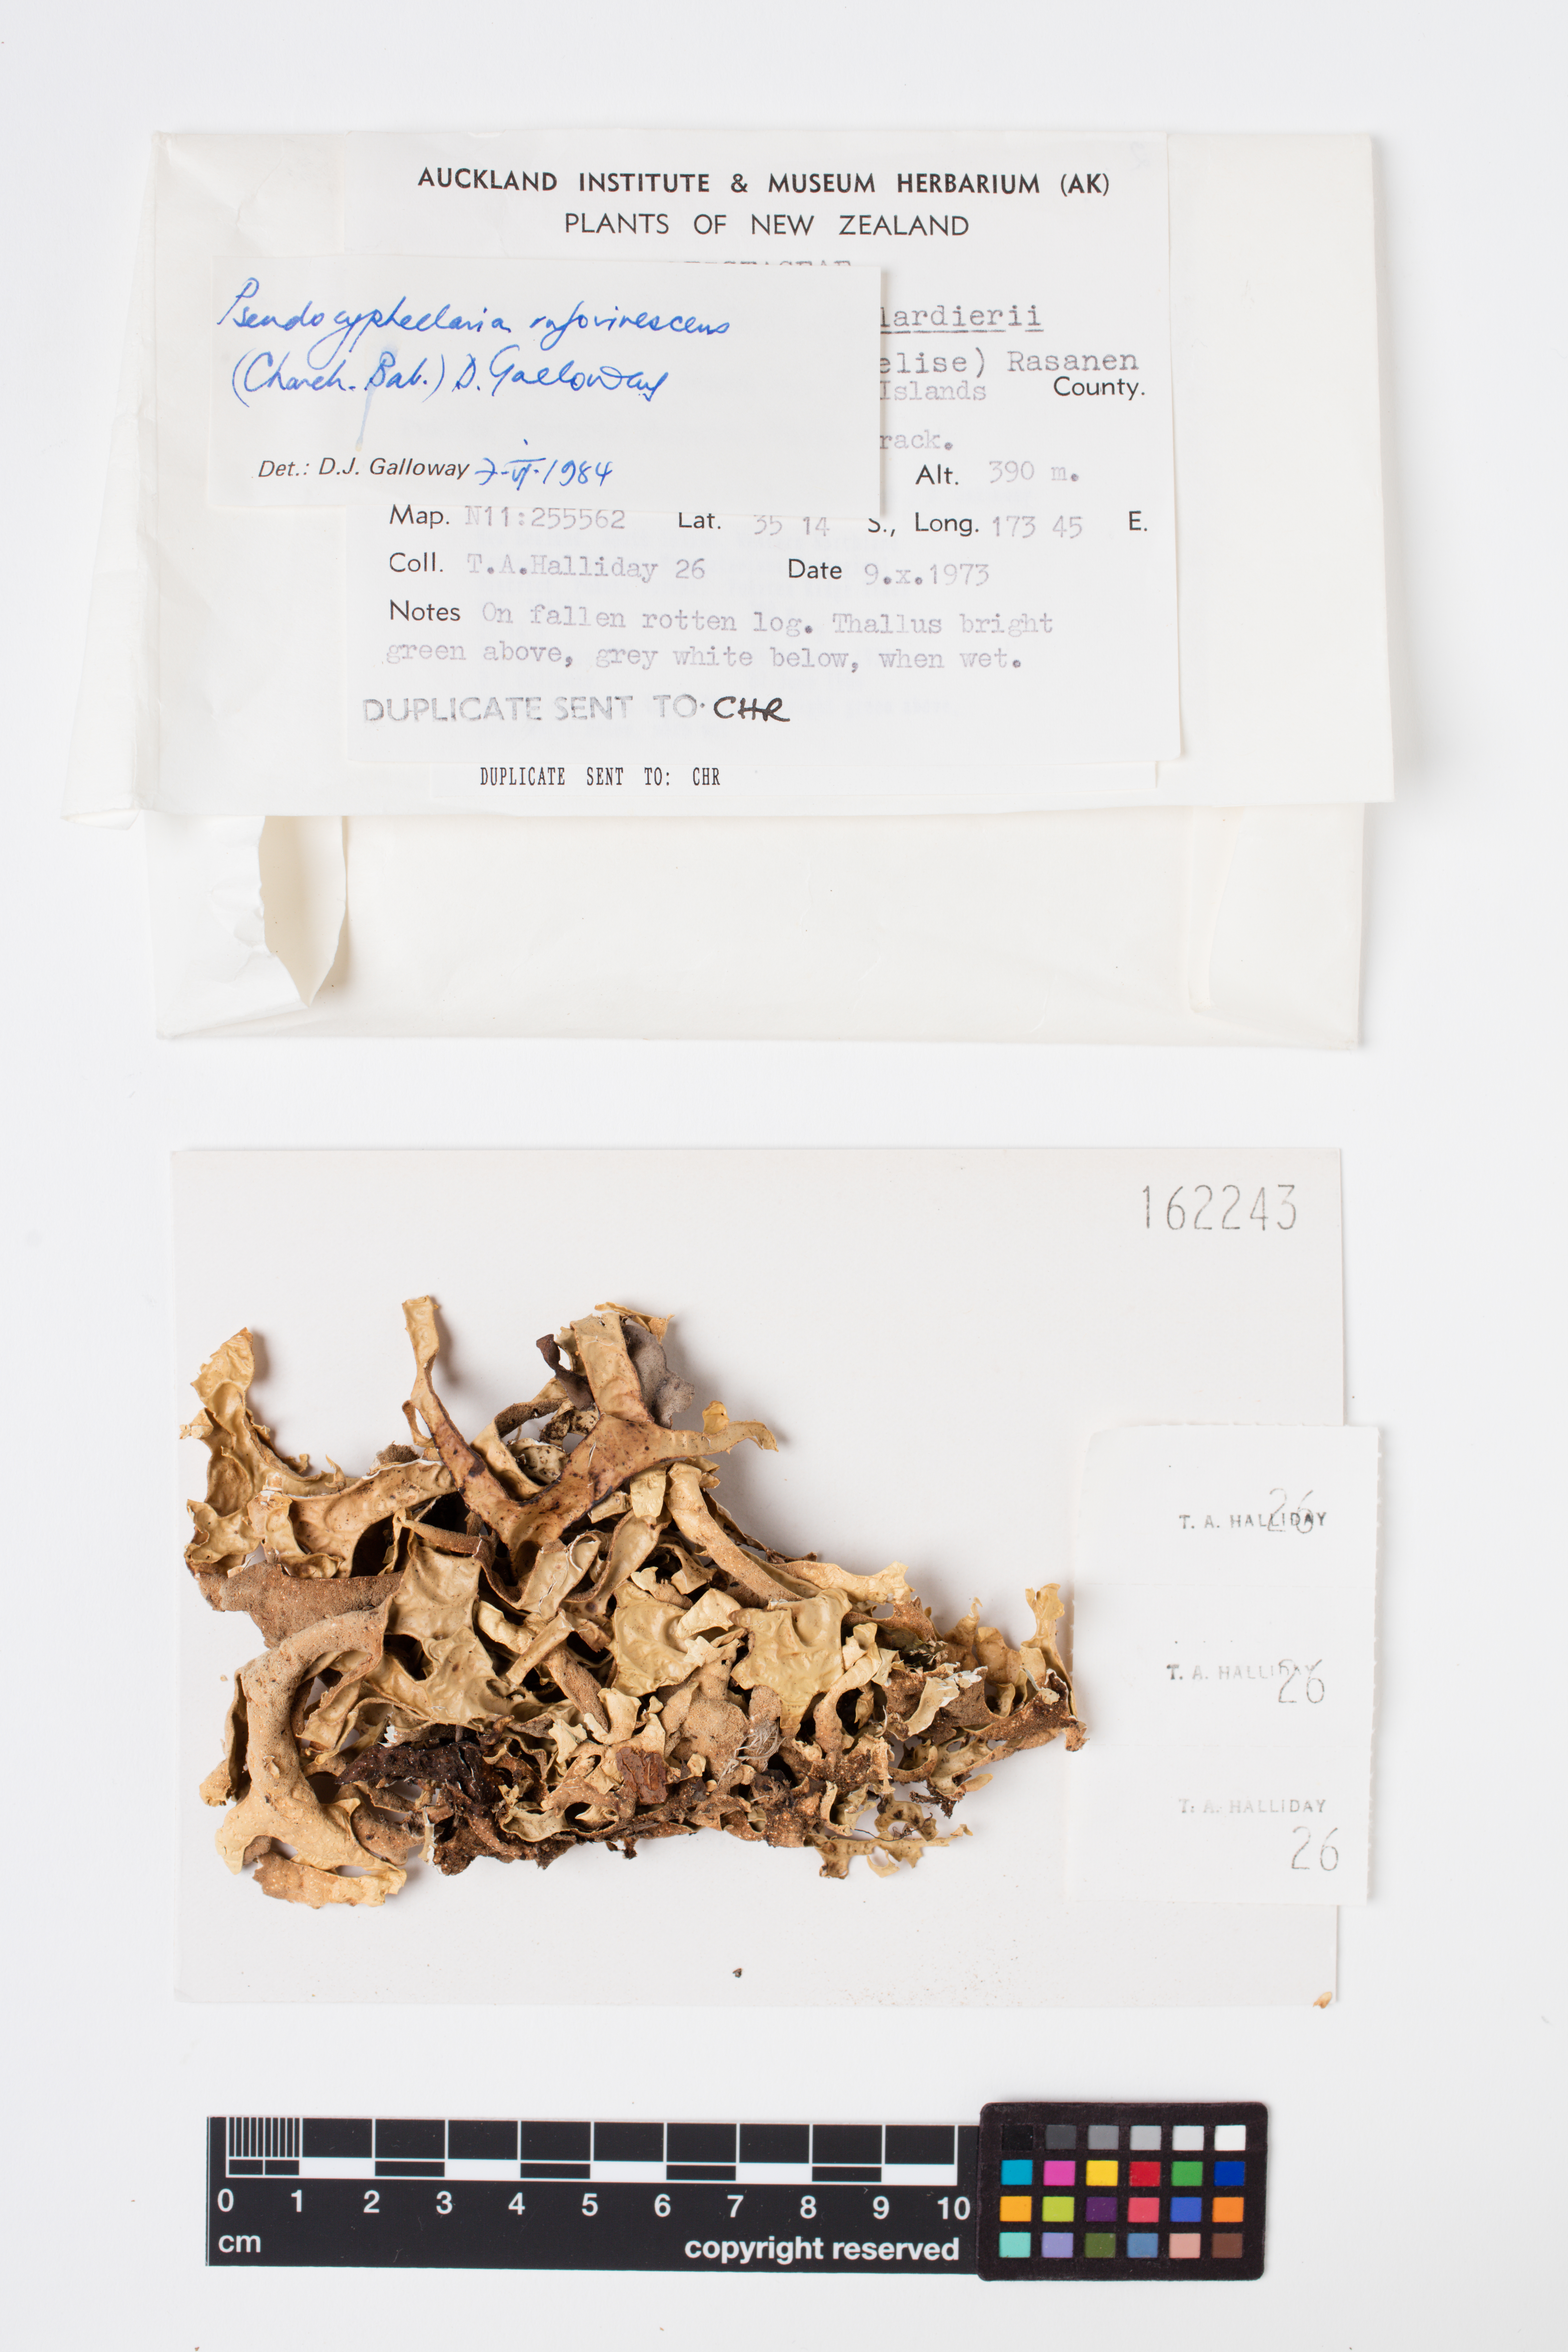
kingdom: Fungi
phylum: Ascomycota
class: Lecanoromycetes
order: Peltigerales
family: Lobariaceae
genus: Pseudocyphellaria
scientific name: Pseudocyphellaria rufovirescens
